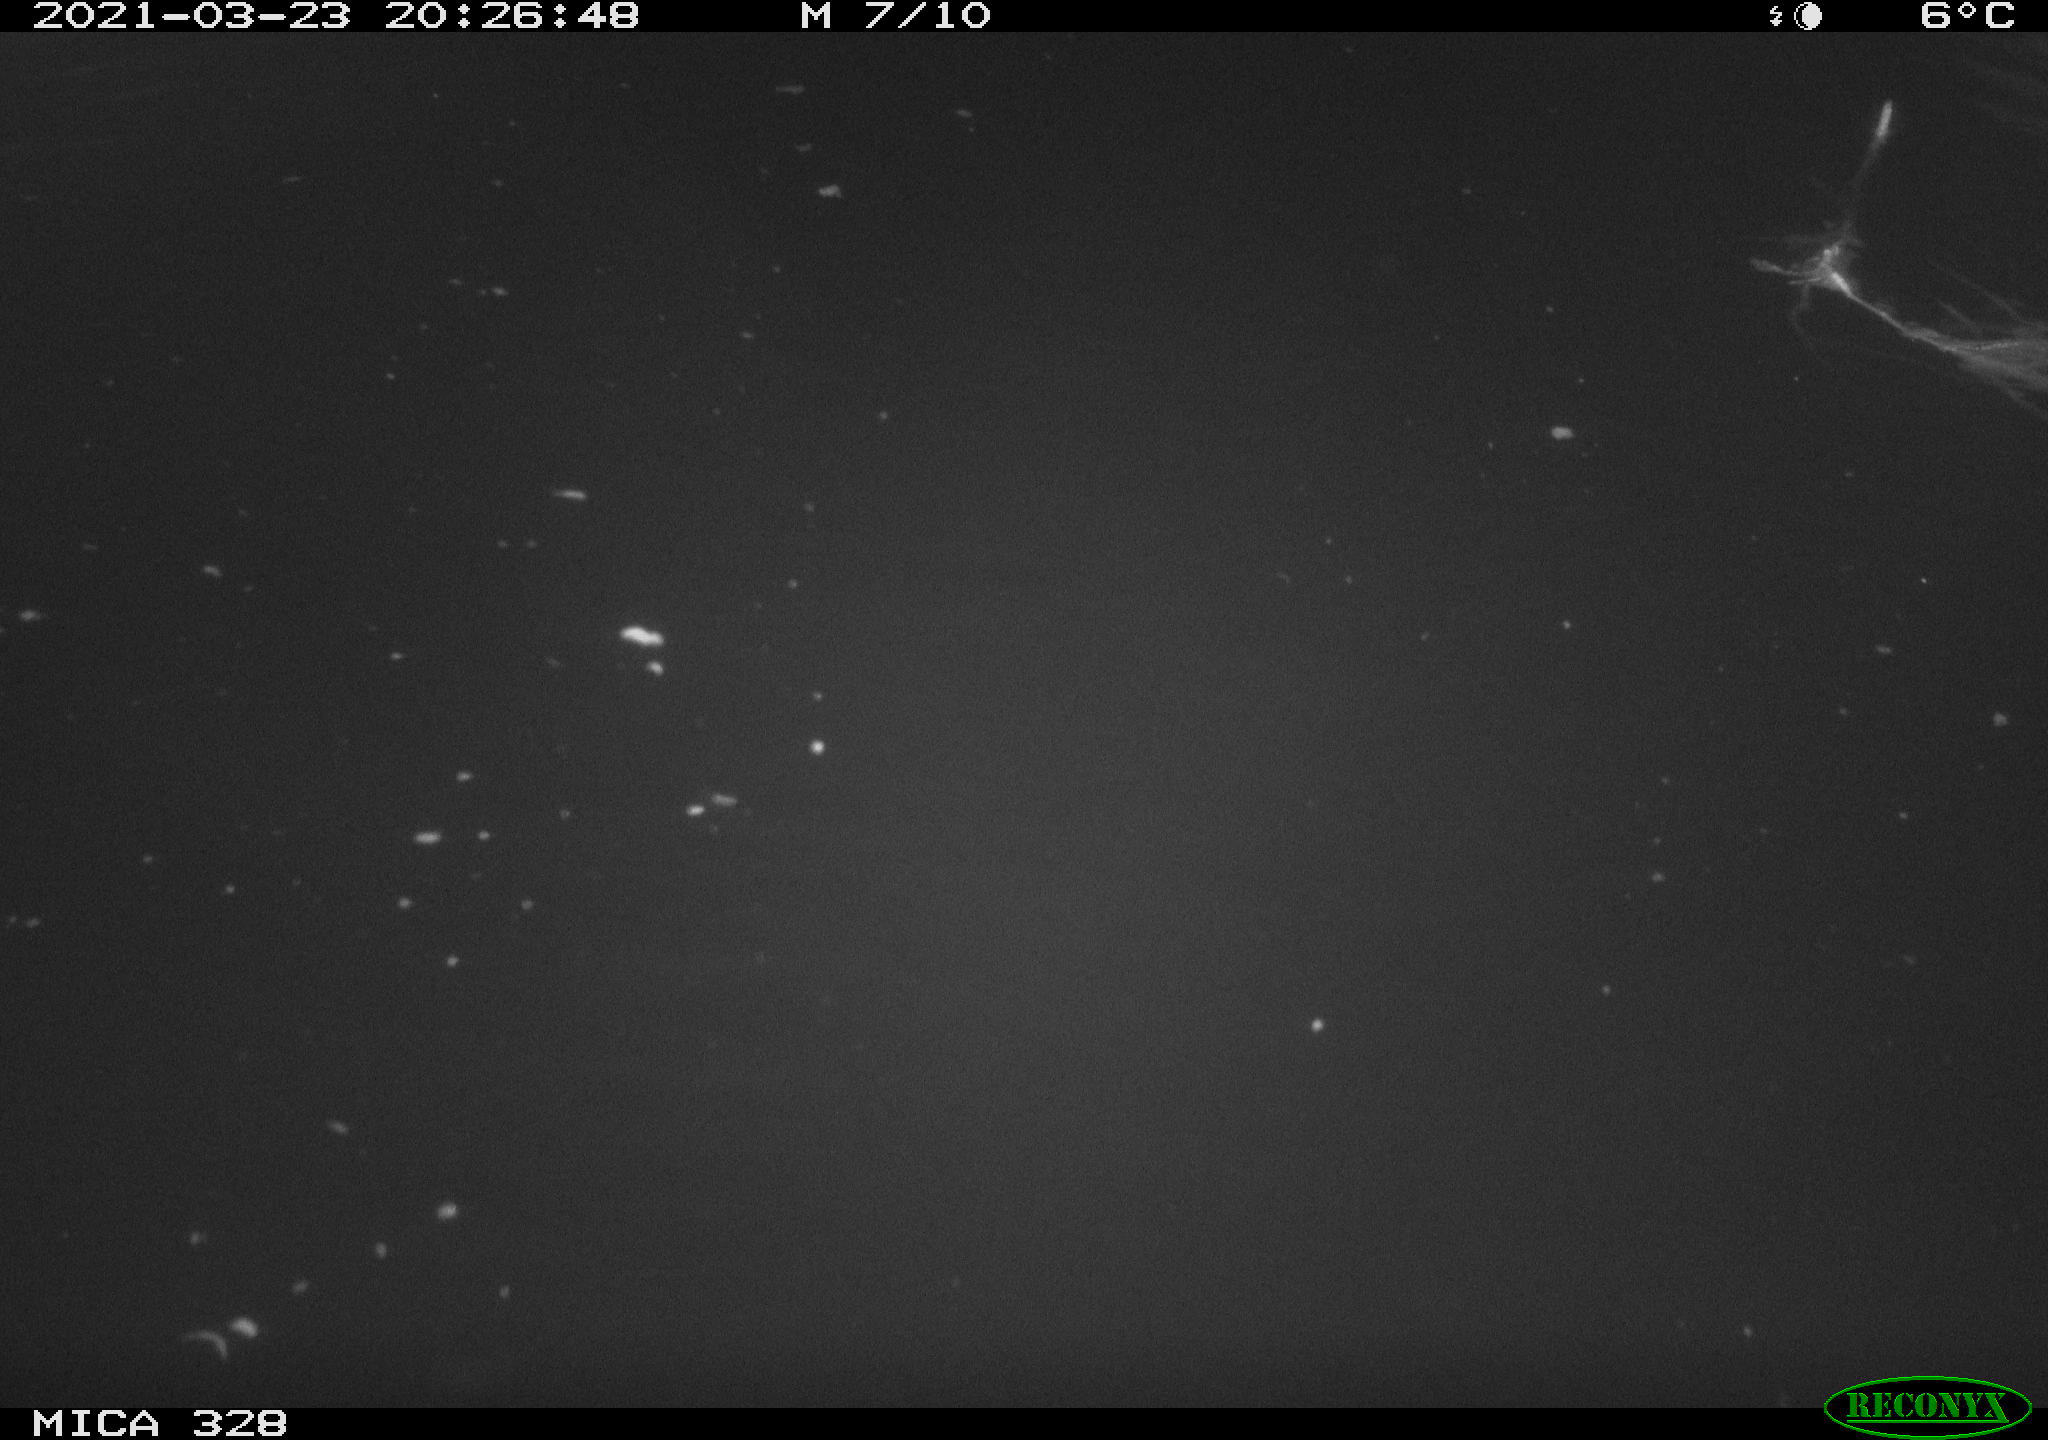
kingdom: Animalia
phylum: Chordata
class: Mammalia
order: Rodentia
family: Cricetidae
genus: Ondatra
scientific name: Ondatra zibethicus
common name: Muskrat
